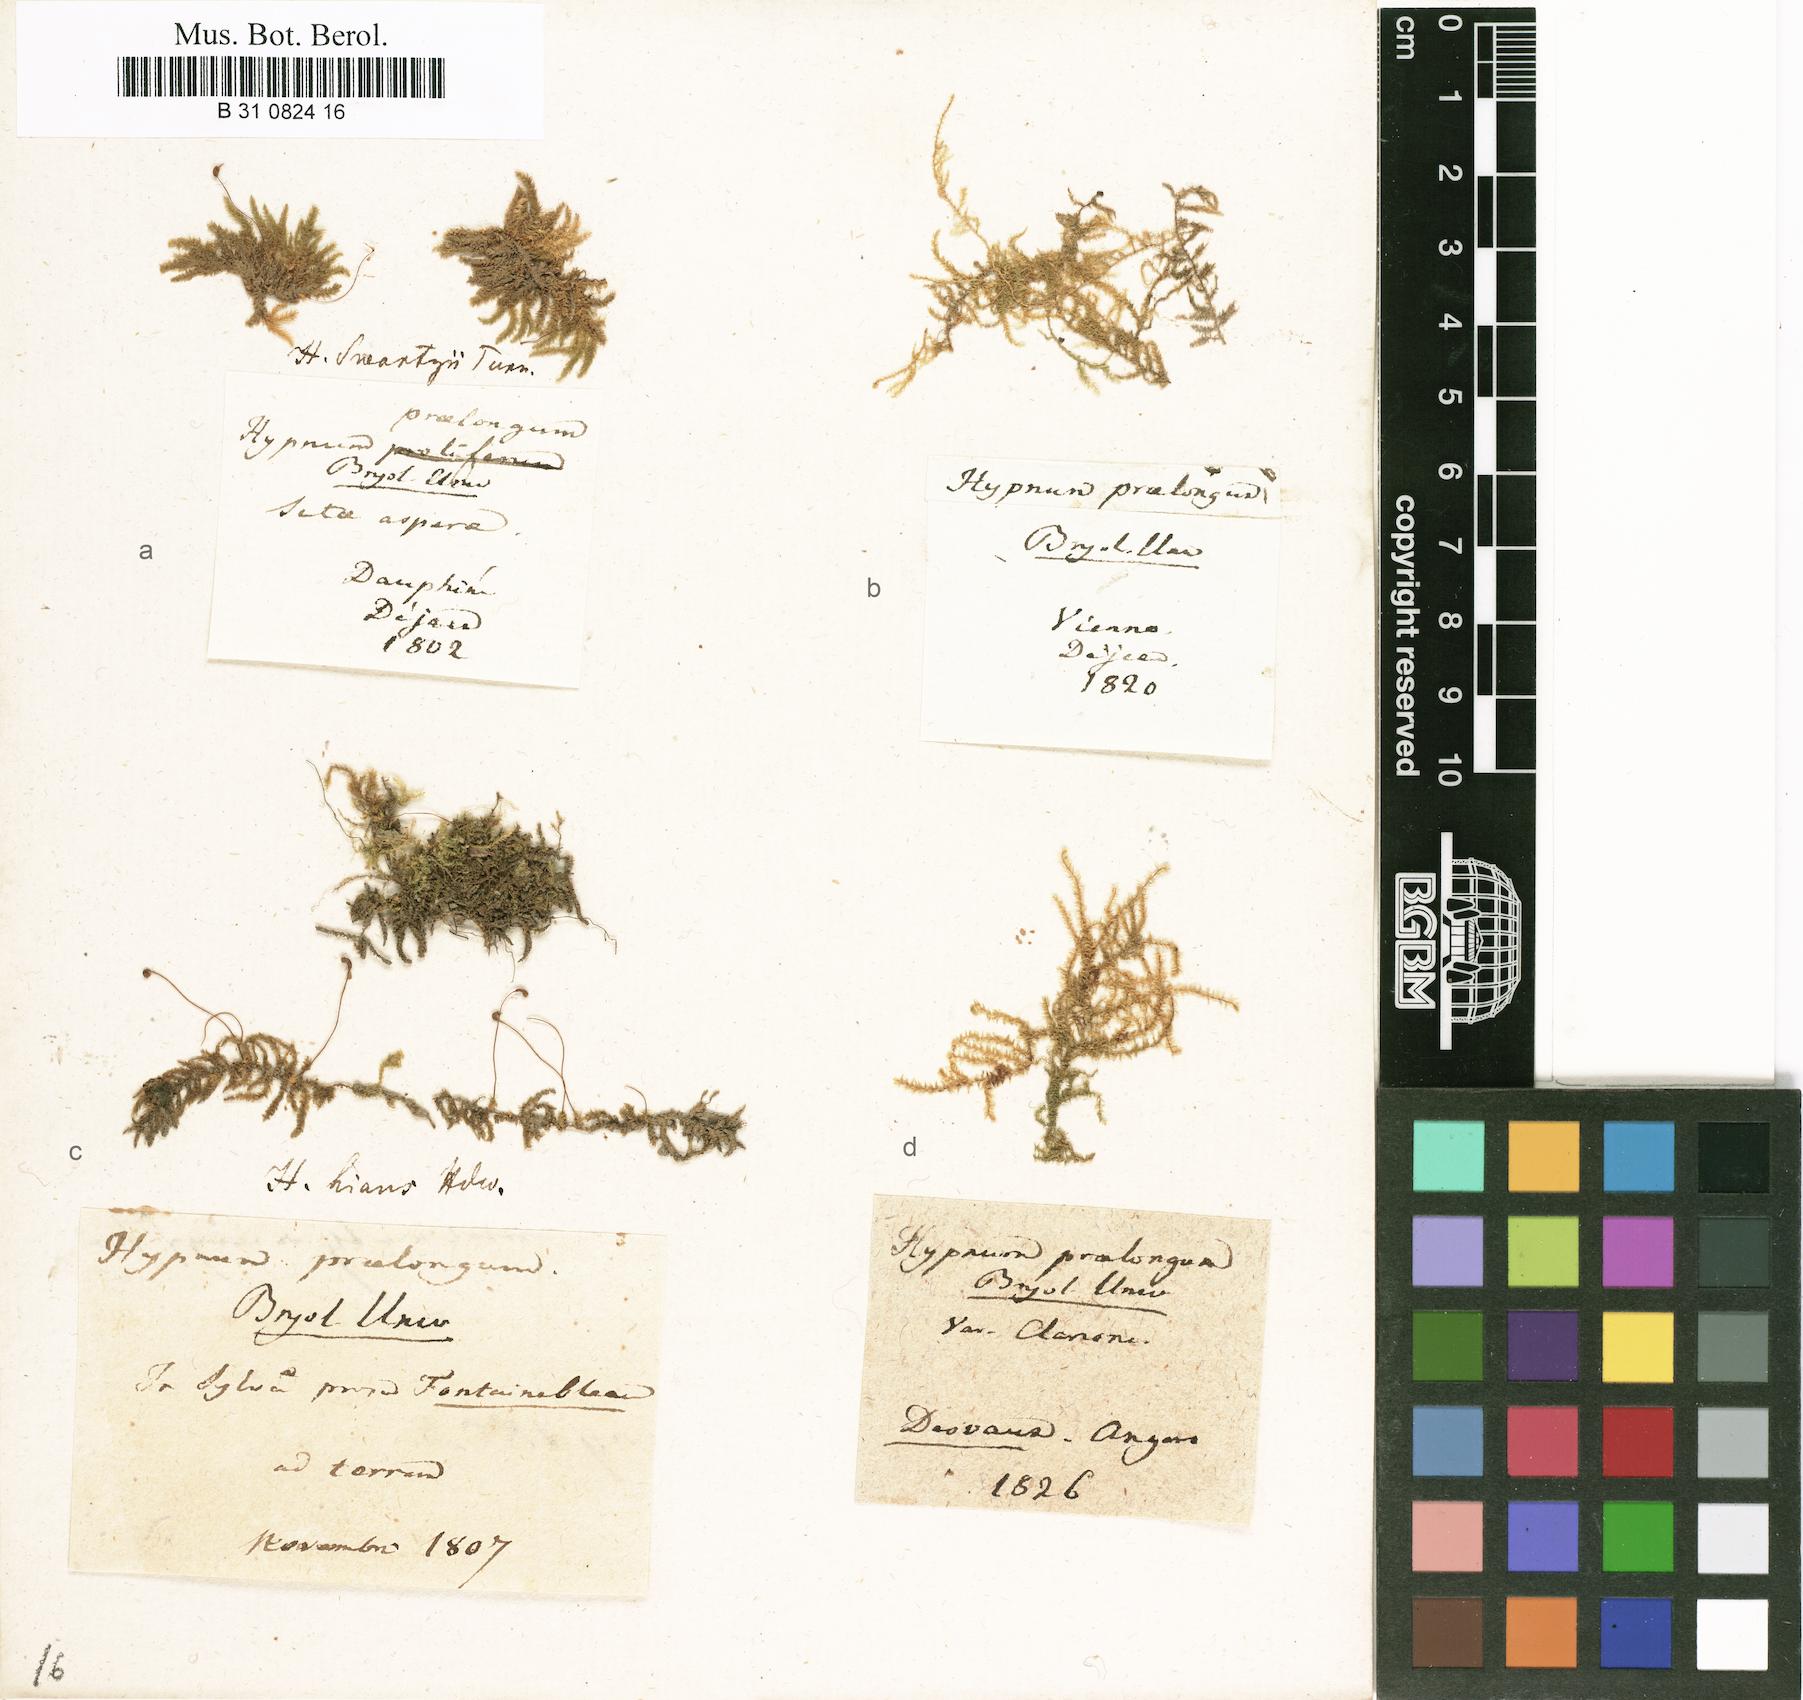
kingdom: Plantae
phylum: Bryophyta
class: Bryopsida
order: Hypnales
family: Brachytheciaceae
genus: Kindbergia
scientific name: Kindbergia praelonga
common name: Slender beaked moss
